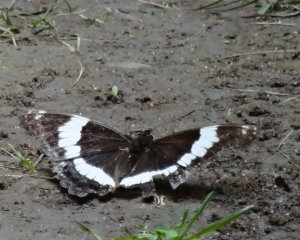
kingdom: Animalia
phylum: Arthropoda
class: Insecta
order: Lepidoptera
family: Nymphalidae
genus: Limenitis
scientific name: Limenitis arthemis
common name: Red-spotted Admiral
